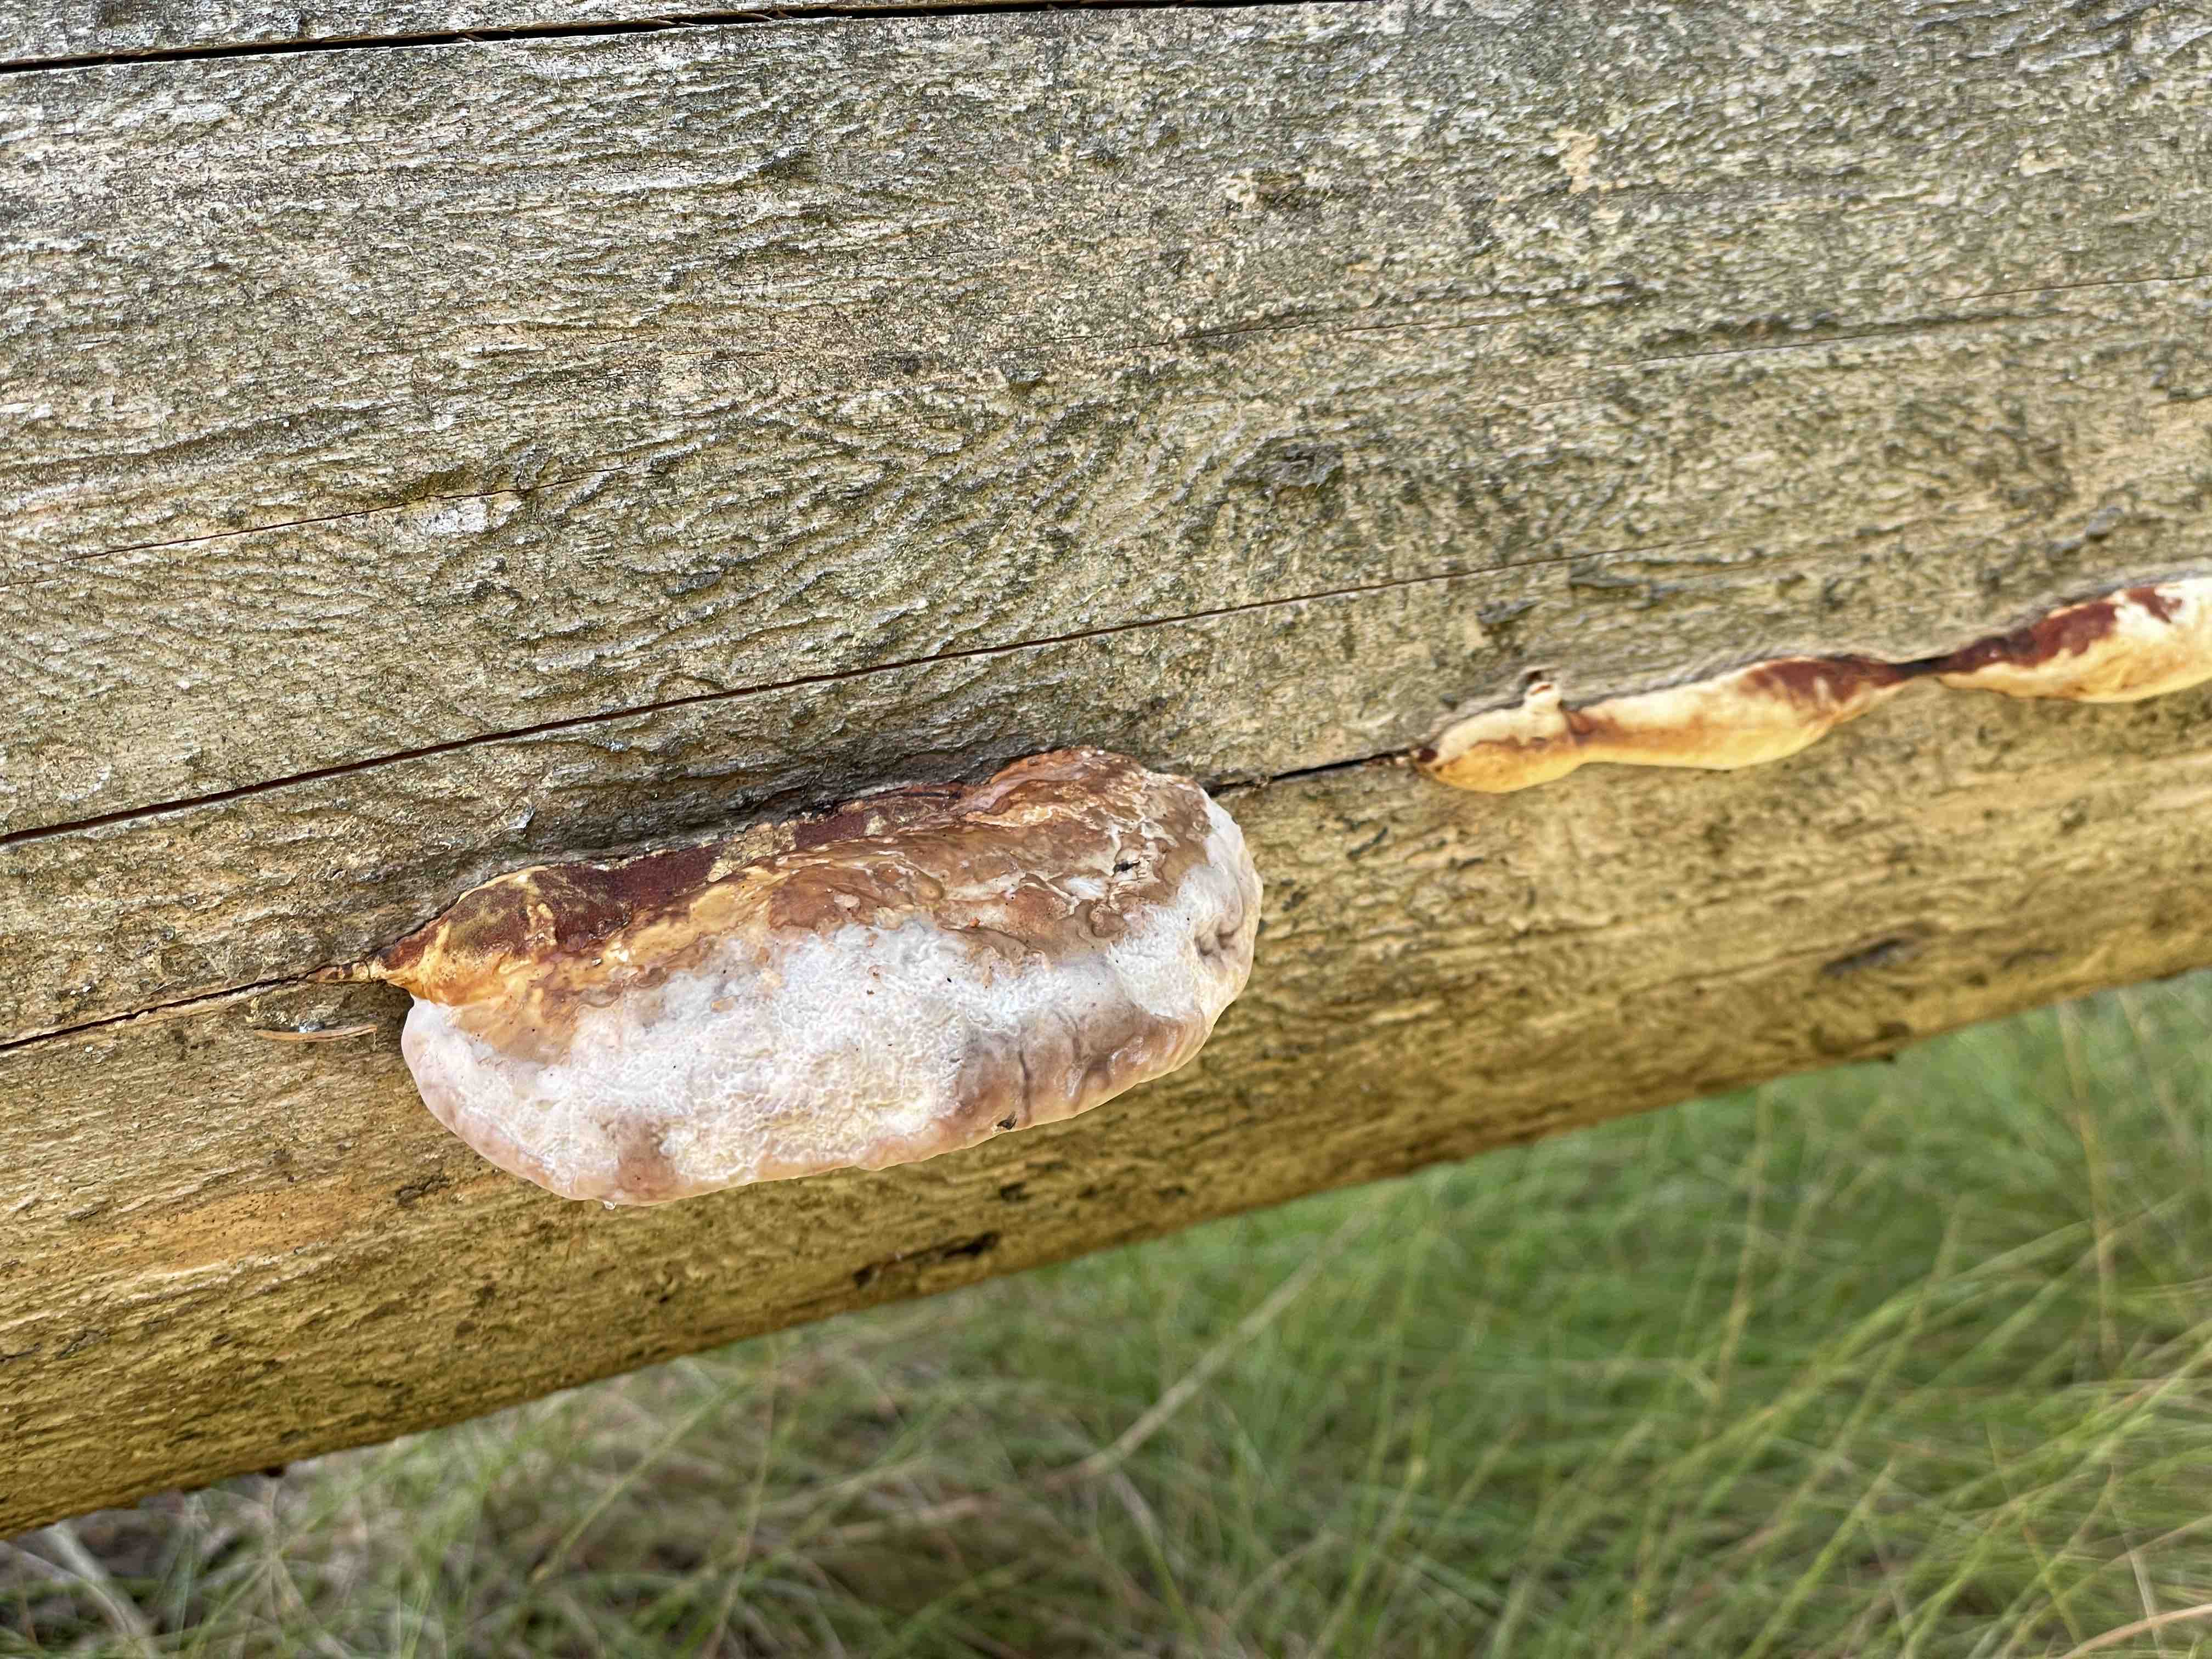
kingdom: Fungi
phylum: Basidiomycota
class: Agaricomycetes
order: Polyporales
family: Fomitopsidaceae
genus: Fomitopsis
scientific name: Fomitopsis pinicola
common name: randbæltet hovporesvamp
